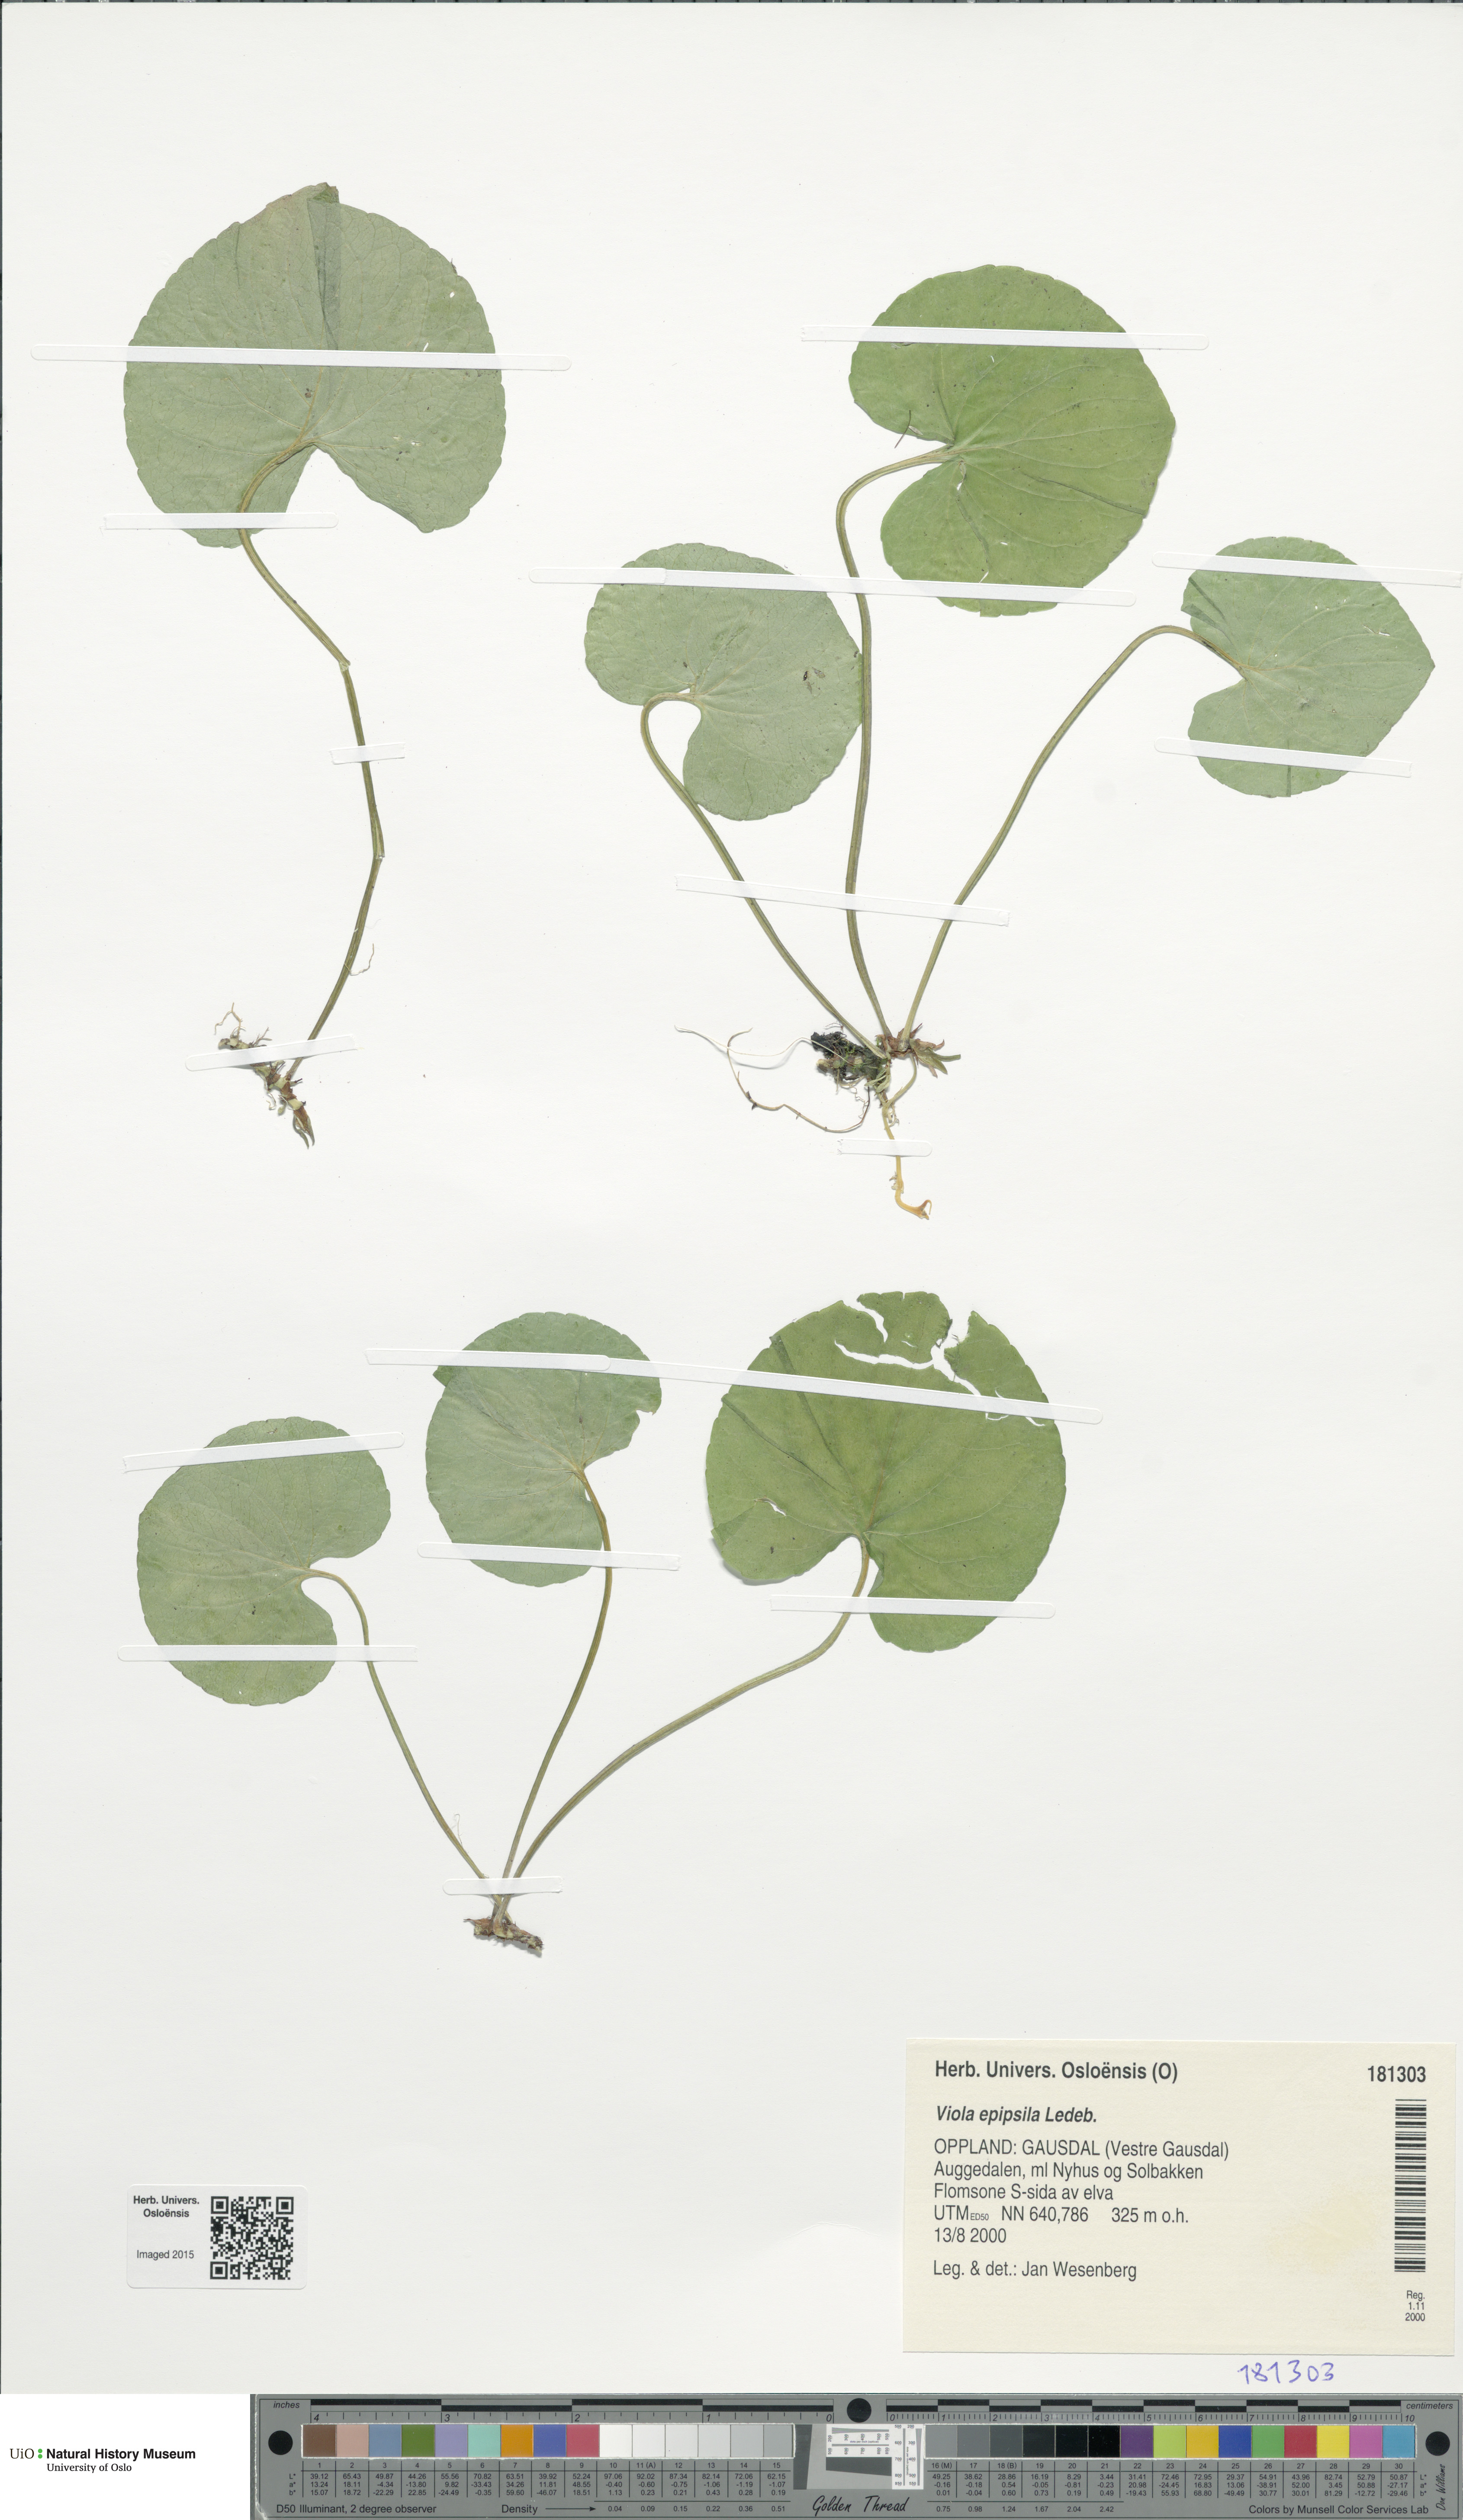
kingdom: Plantae
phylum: Tracheophyta
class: Magnoliopsida
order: Malpighiales
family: Violaceae
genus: Viola
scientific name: Viola epipsila
